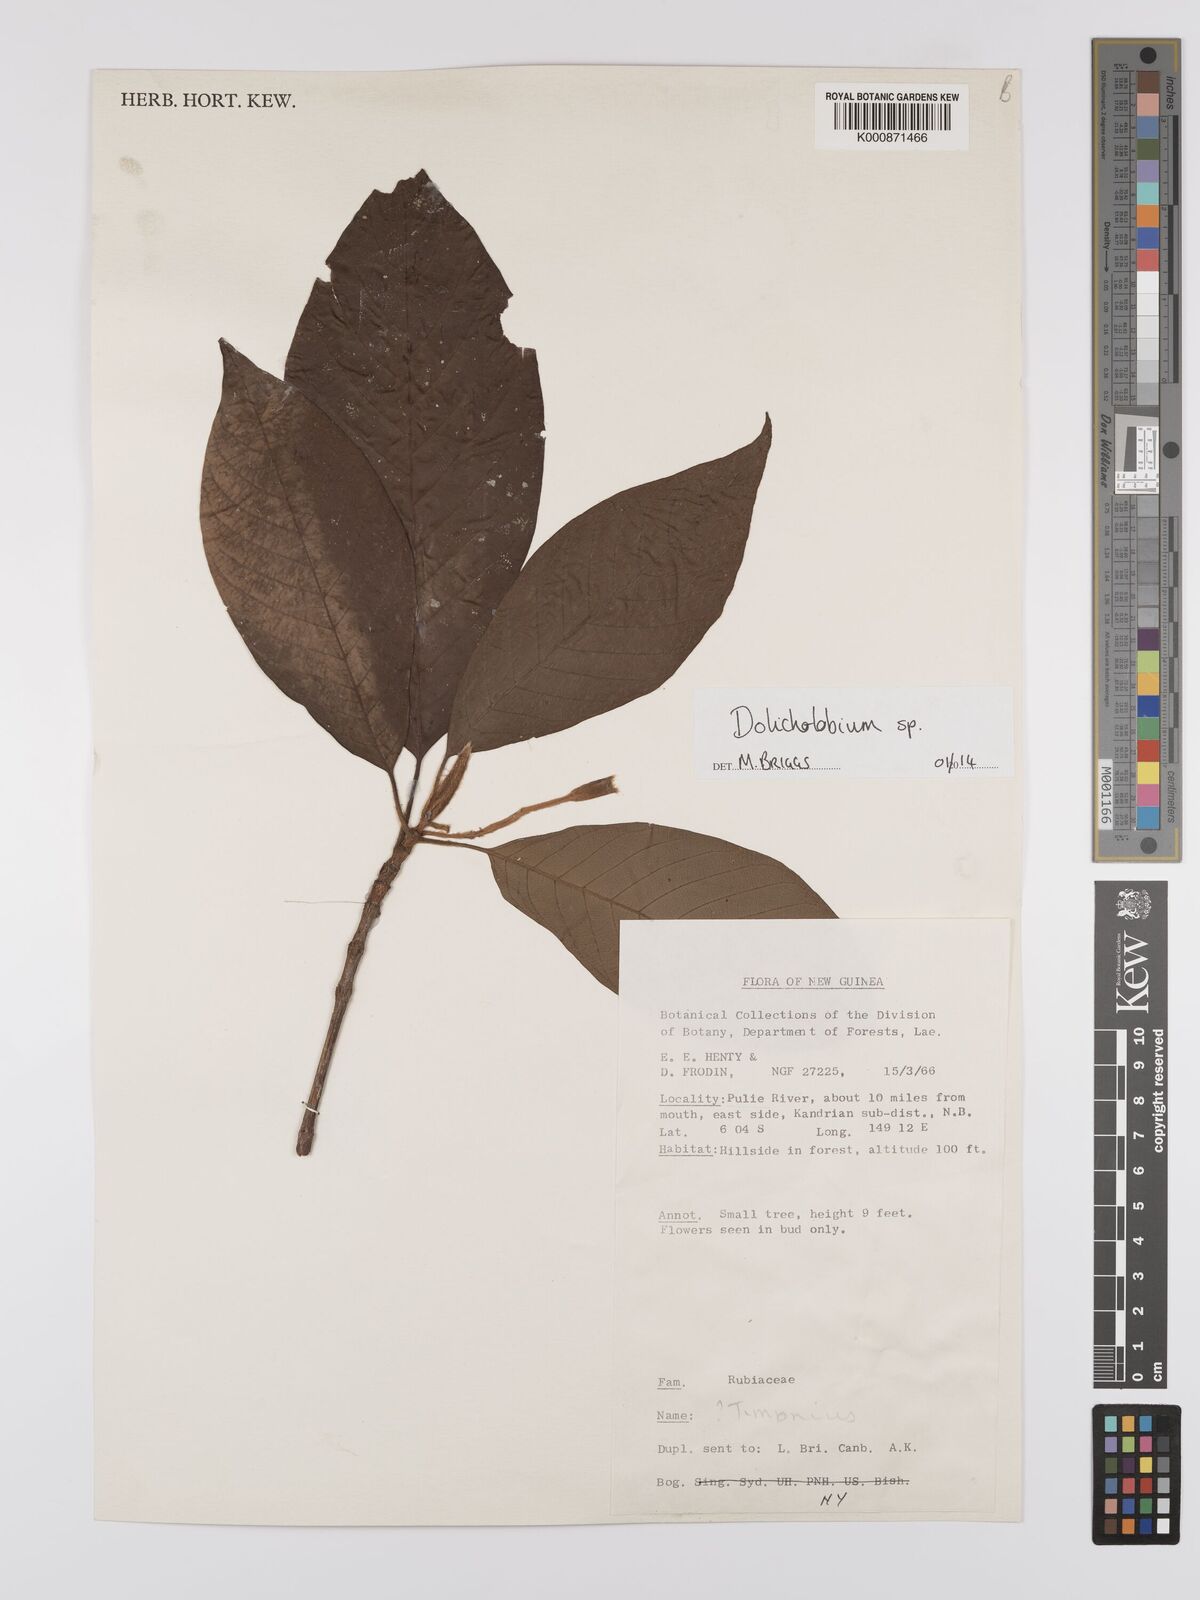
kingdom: Plantae
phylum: Tracheophyta
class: Magnoliopsida
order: Gentianales
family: Rubiaceae
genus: Dolicholobium
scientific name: Dolicholobium
